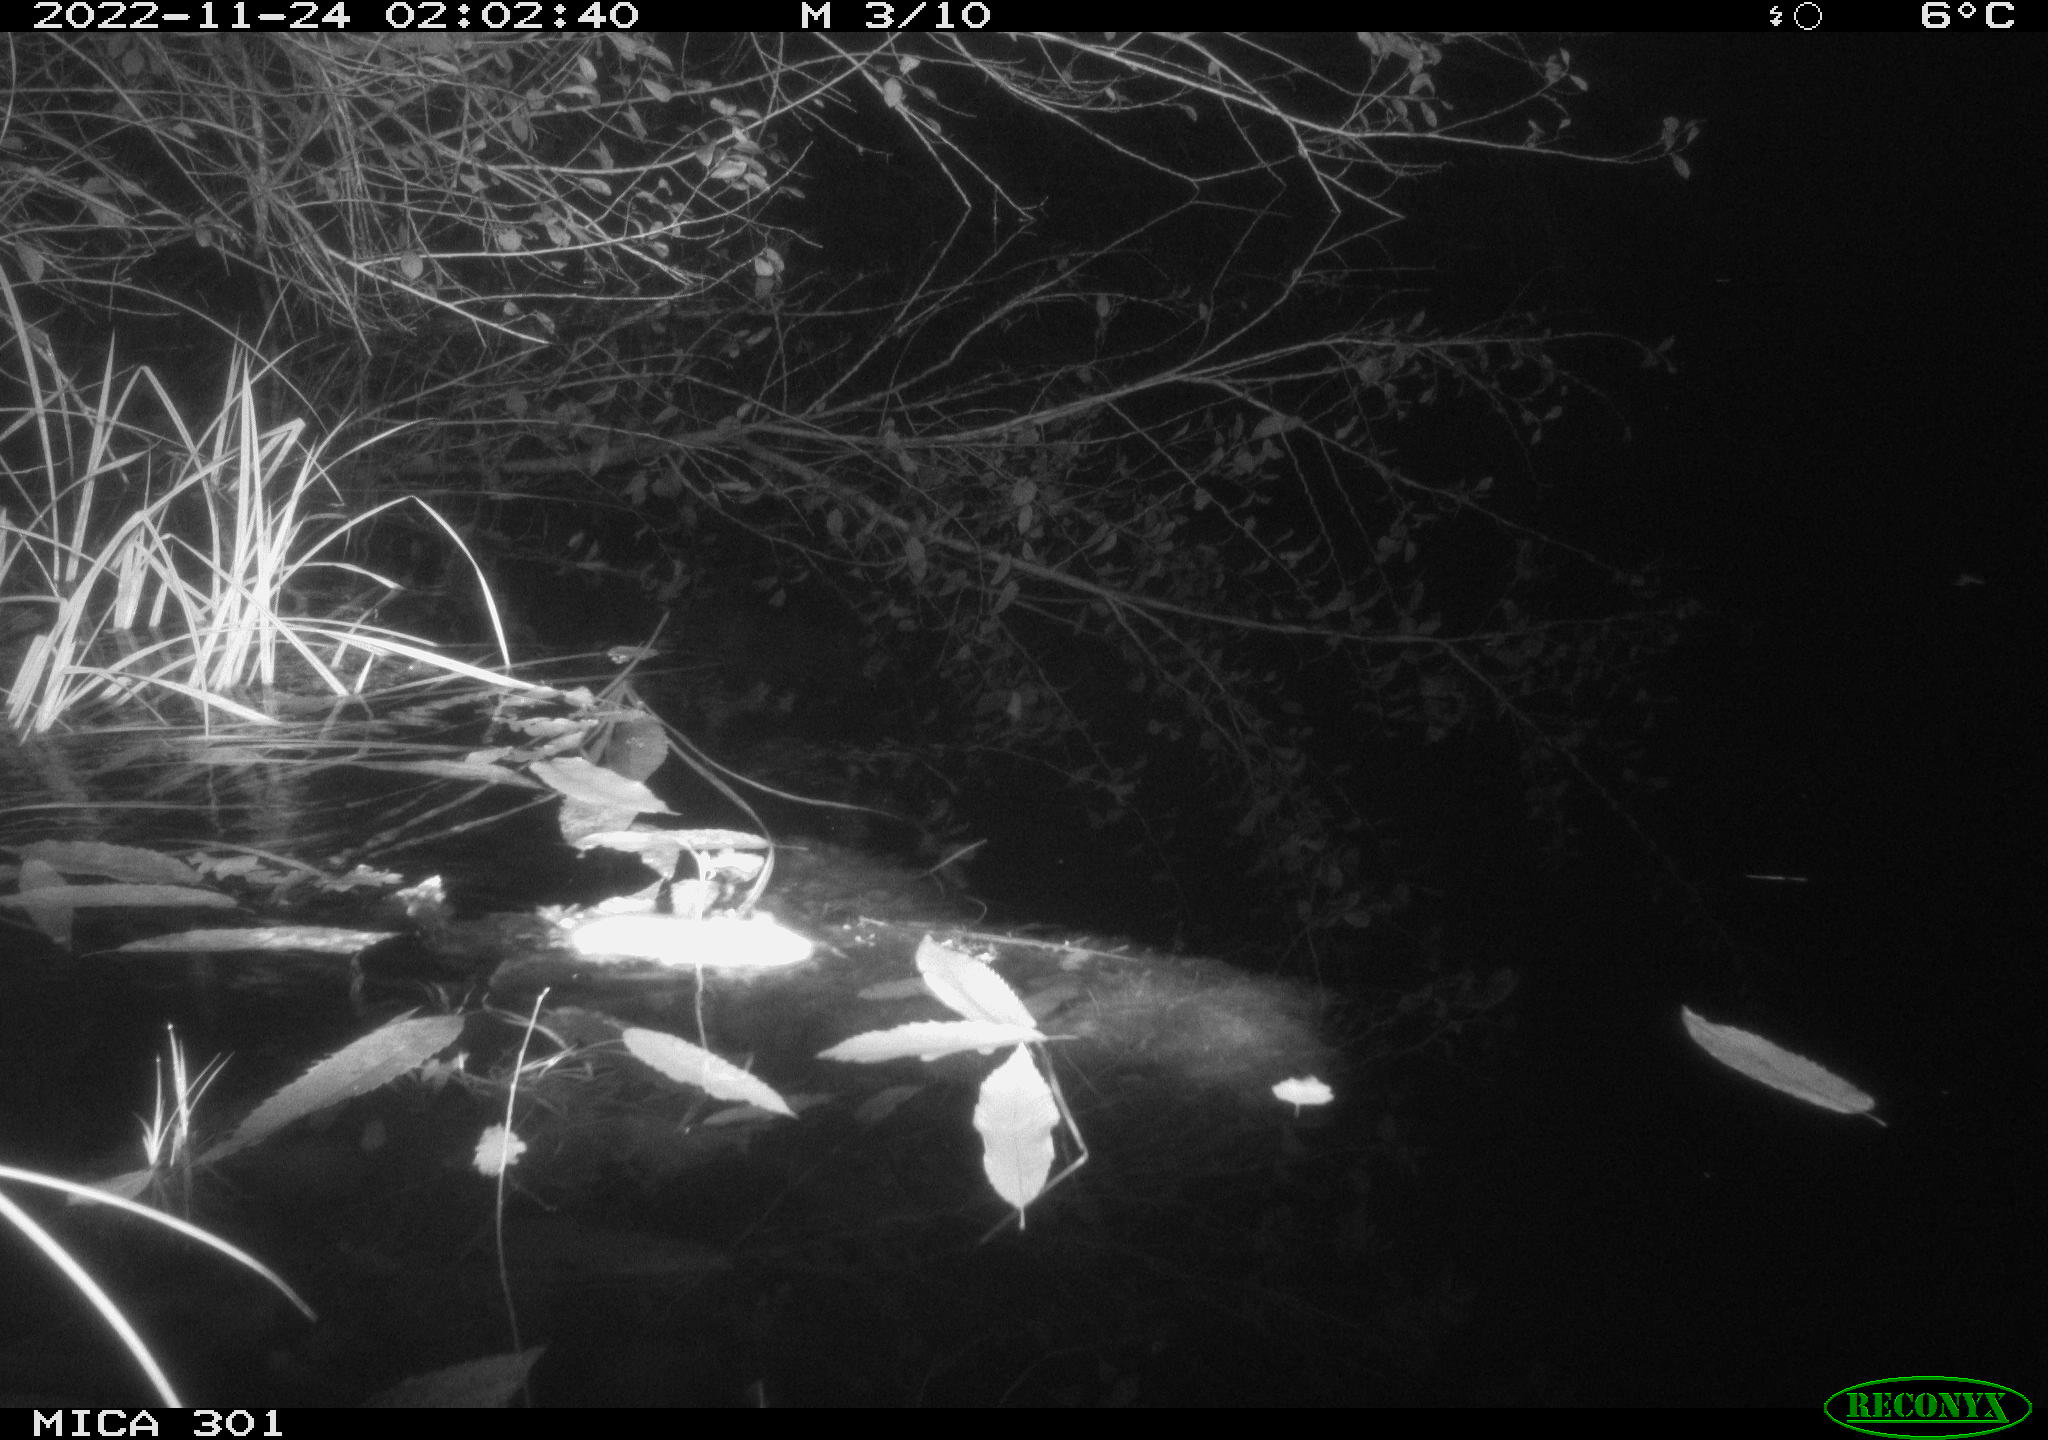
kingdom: Animalia
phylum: Chordata
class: Mammalia
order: Rodentia
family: Muridae
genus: Rattus
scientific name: Rattus norvegicus
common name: Brown rat
